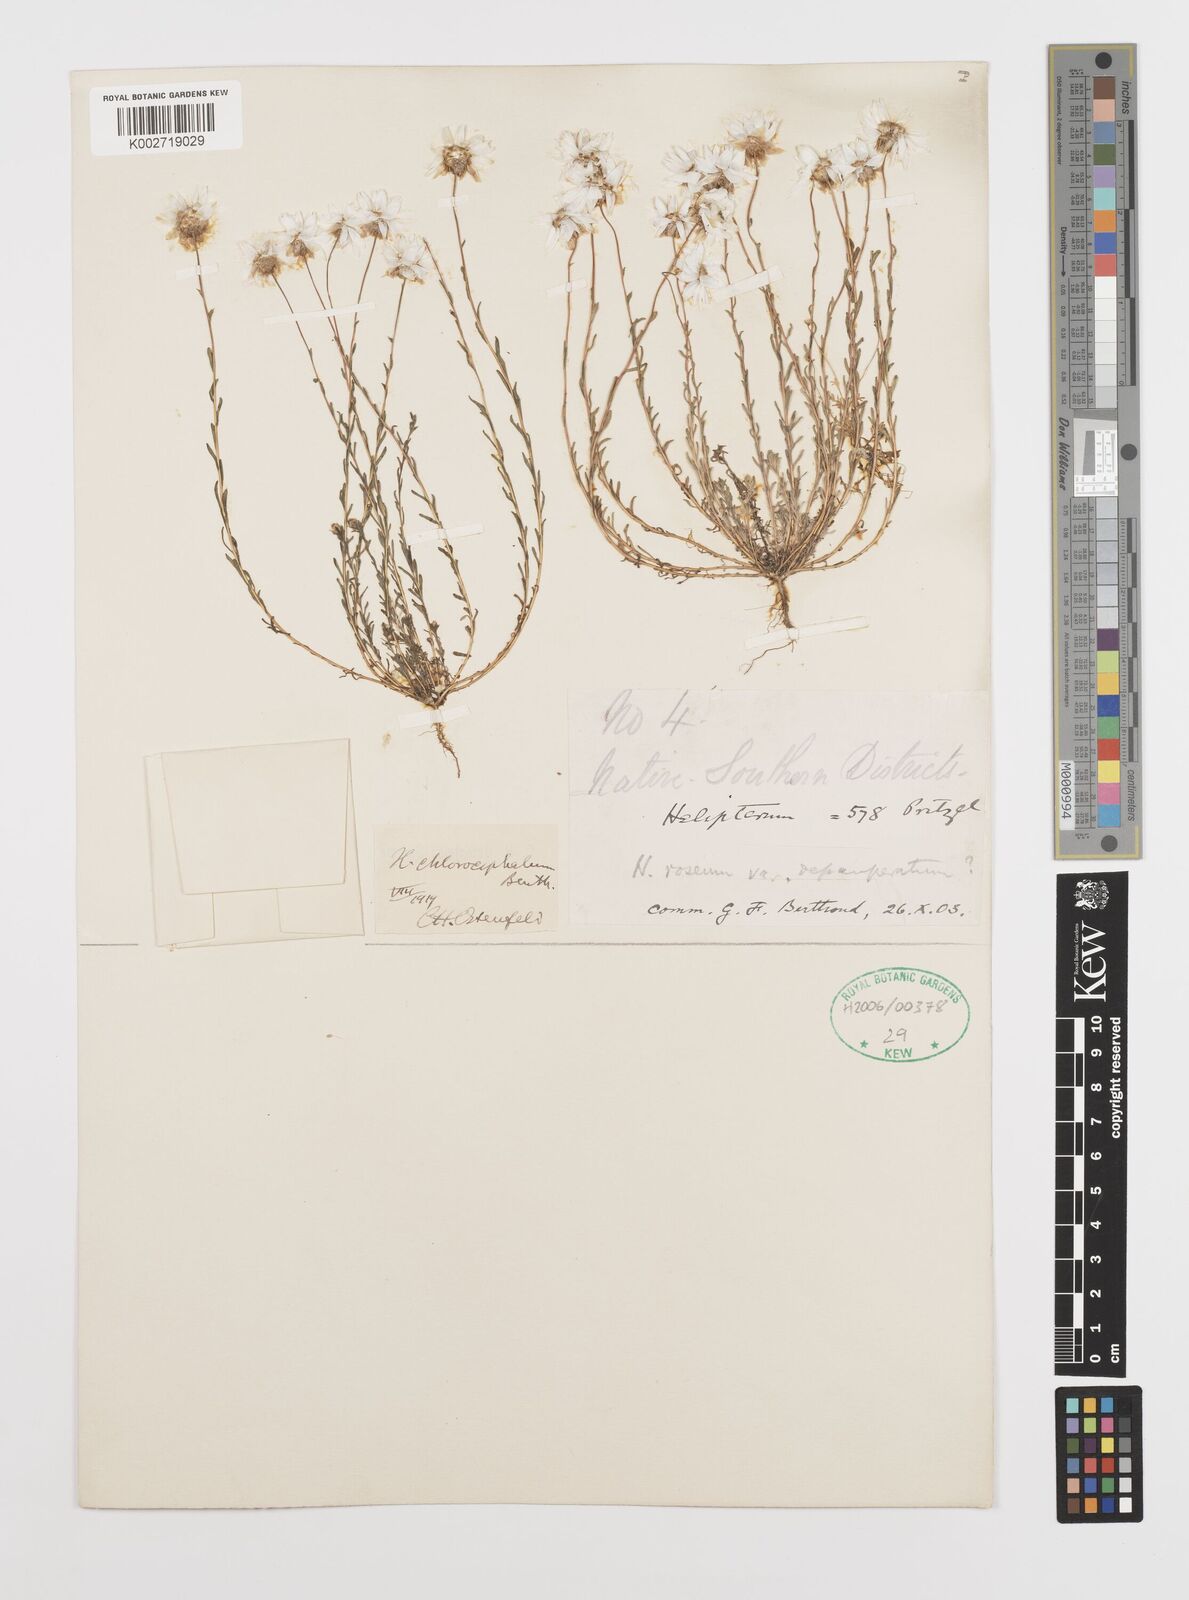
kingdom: Plantae
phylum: Tracheophyta
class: Magnoliopsida
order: Asterales
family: Asteraceae
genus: Rhodanthe
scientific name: Rhodanthe chlorocephala
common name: Rosy sunray
